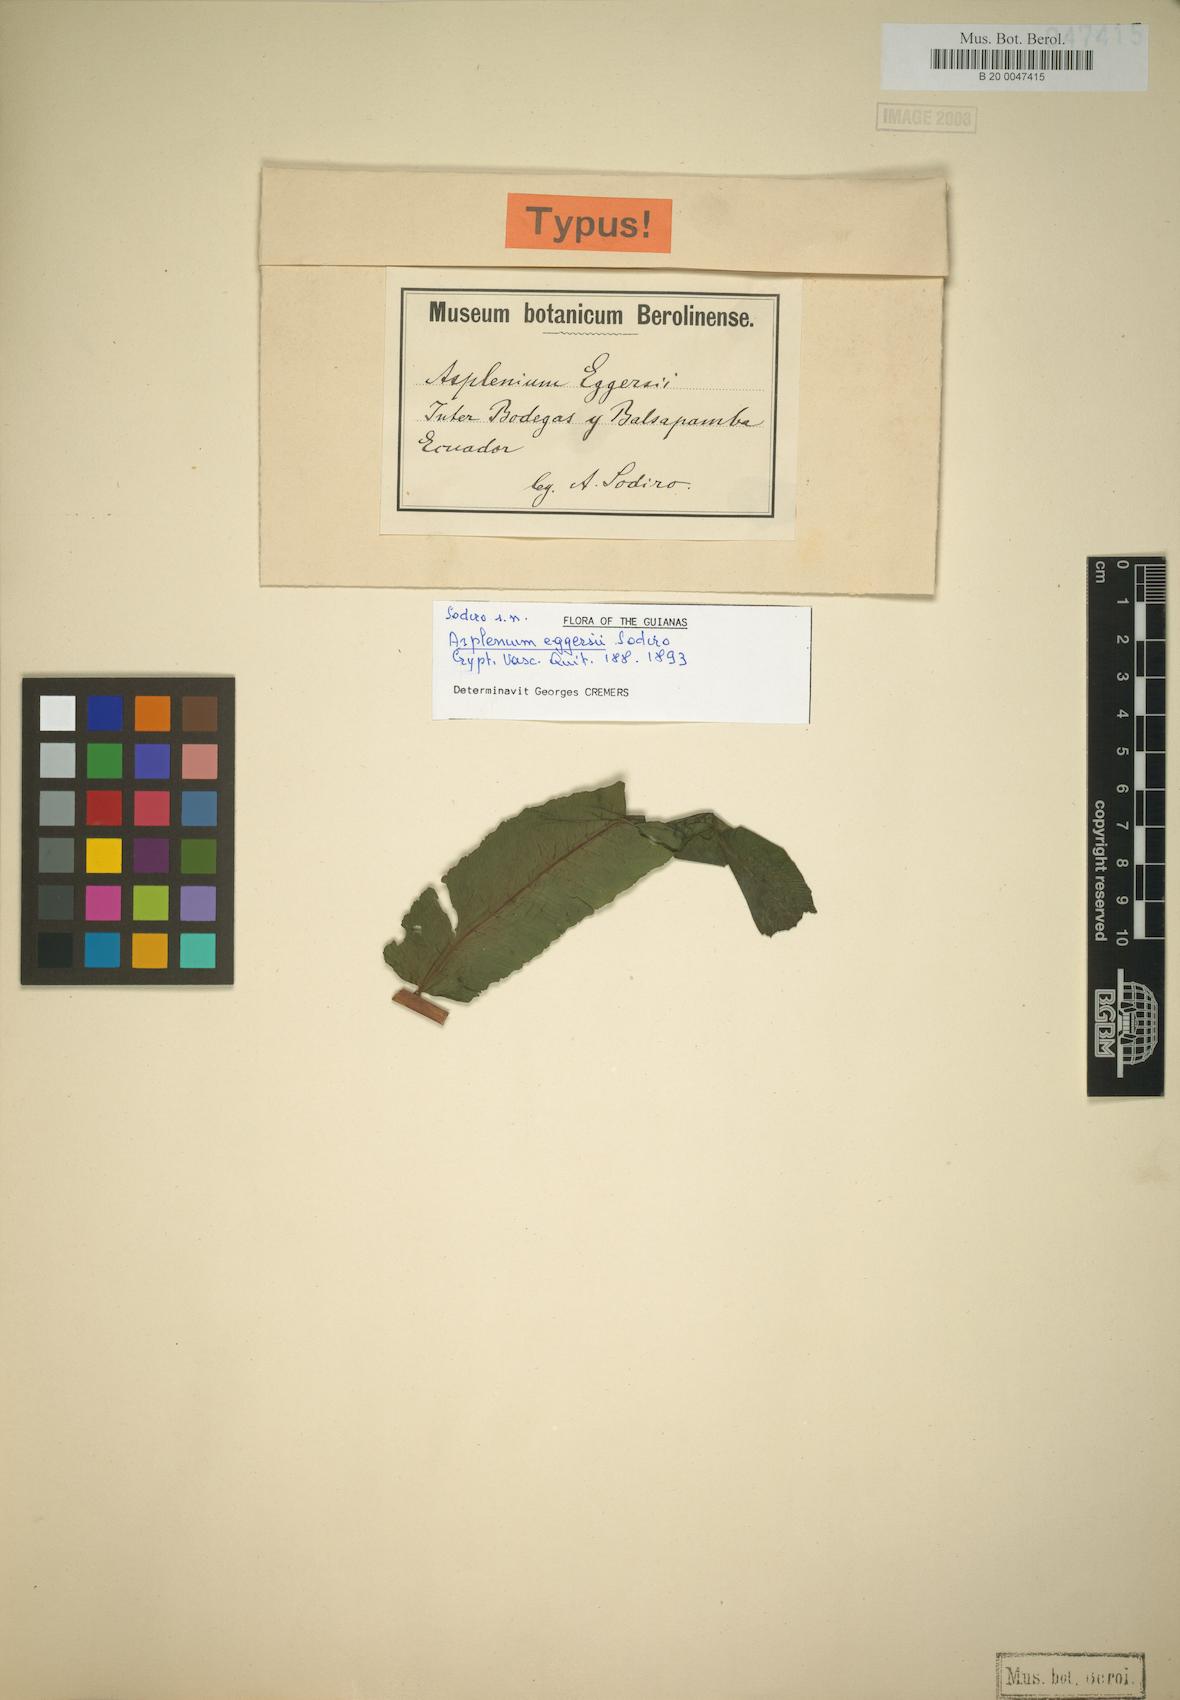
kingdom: Plantae
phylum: Tracheophyta
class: Polypodiopsida
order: Polypodiales
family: Athyriaceae
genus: Diplazium
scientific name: Diplazium centripetale
